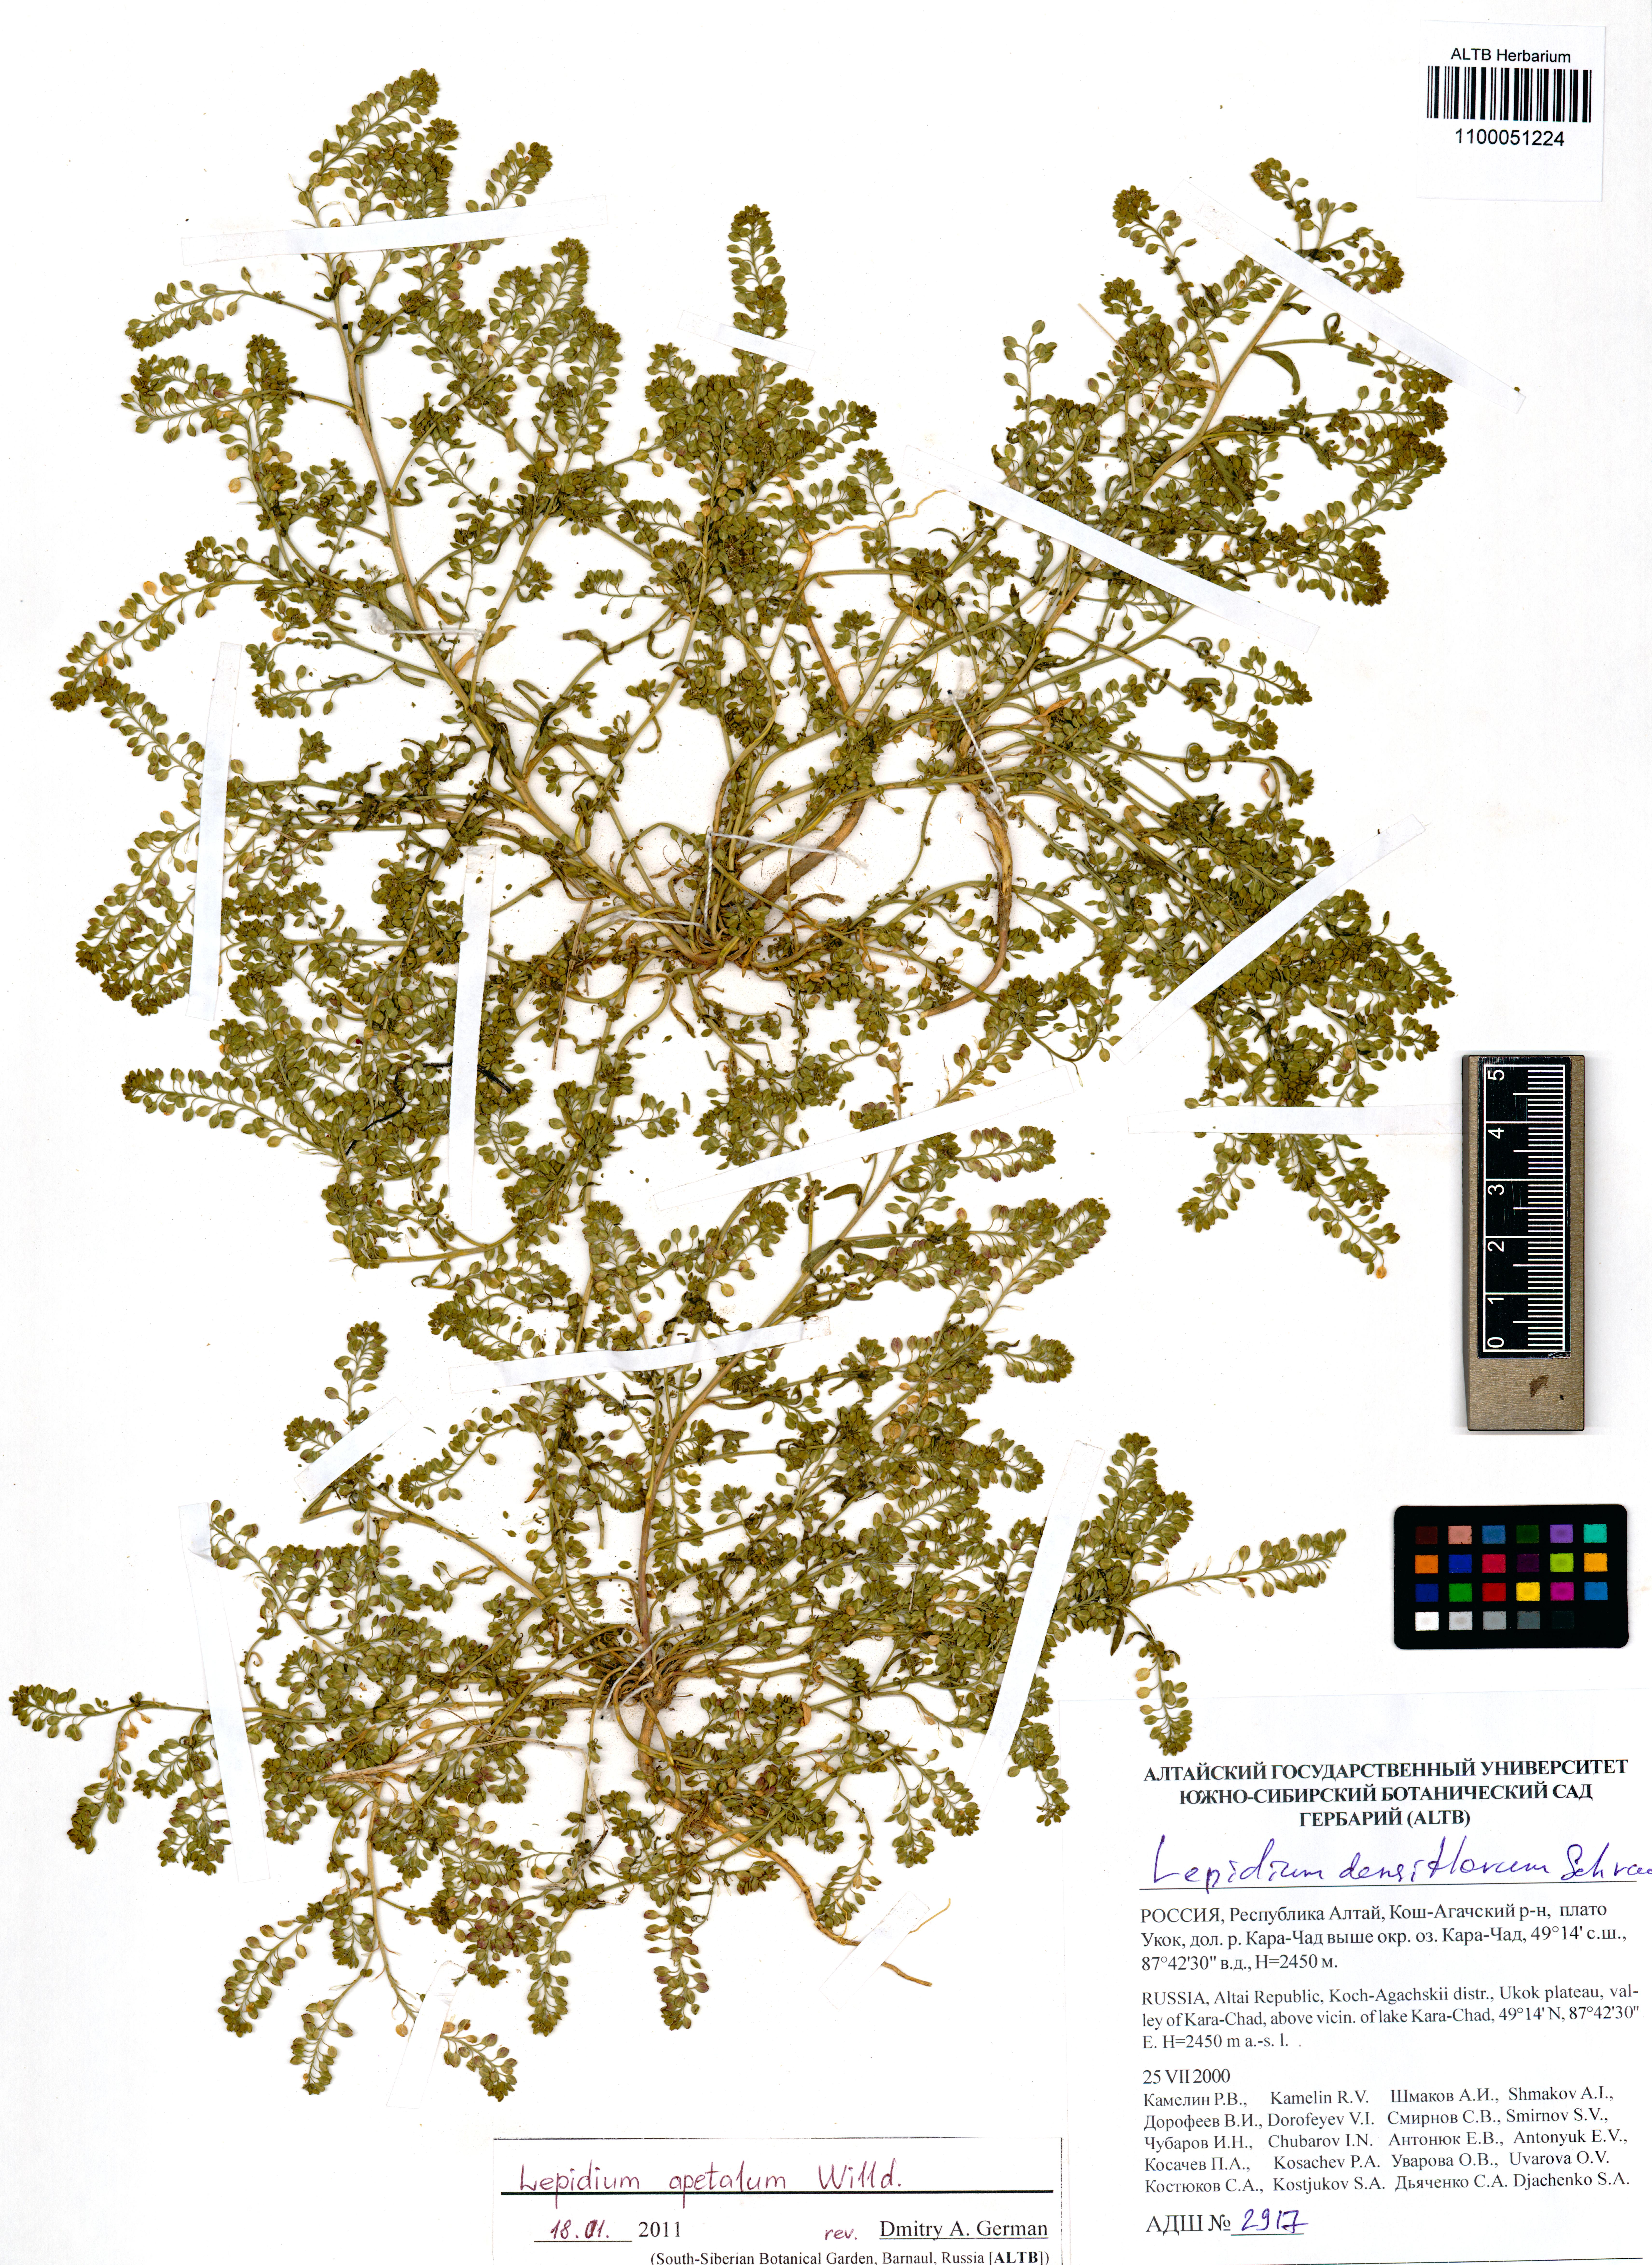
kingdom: Plantae
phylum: Tracheophyta
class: Magnoliopsida
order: Brassicales
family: Brassicaceae
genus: Lepidium
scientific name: Lepidium apetalum
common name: Pepperweed
